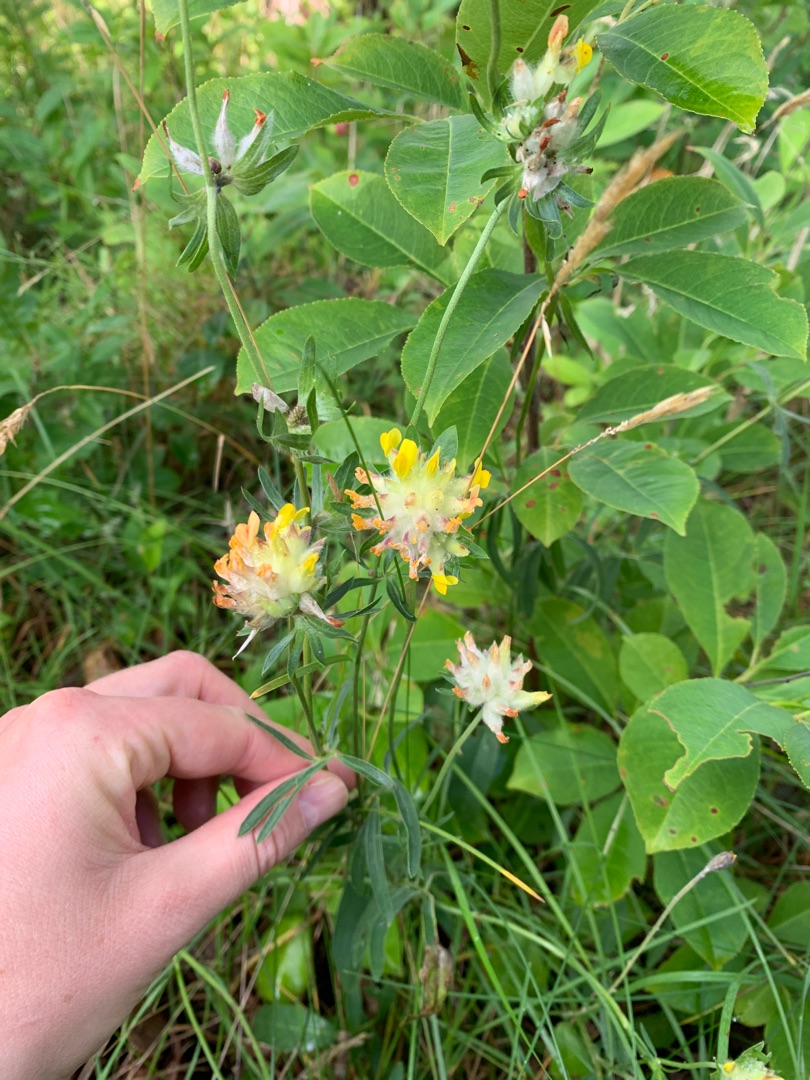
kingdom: Plantae
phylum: Tracheophyta
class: Magnoliopsida
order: Fabales
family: Fabaceae
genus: Anthyllis
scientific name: Anthyllis vulneraria
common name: Rundbælg
